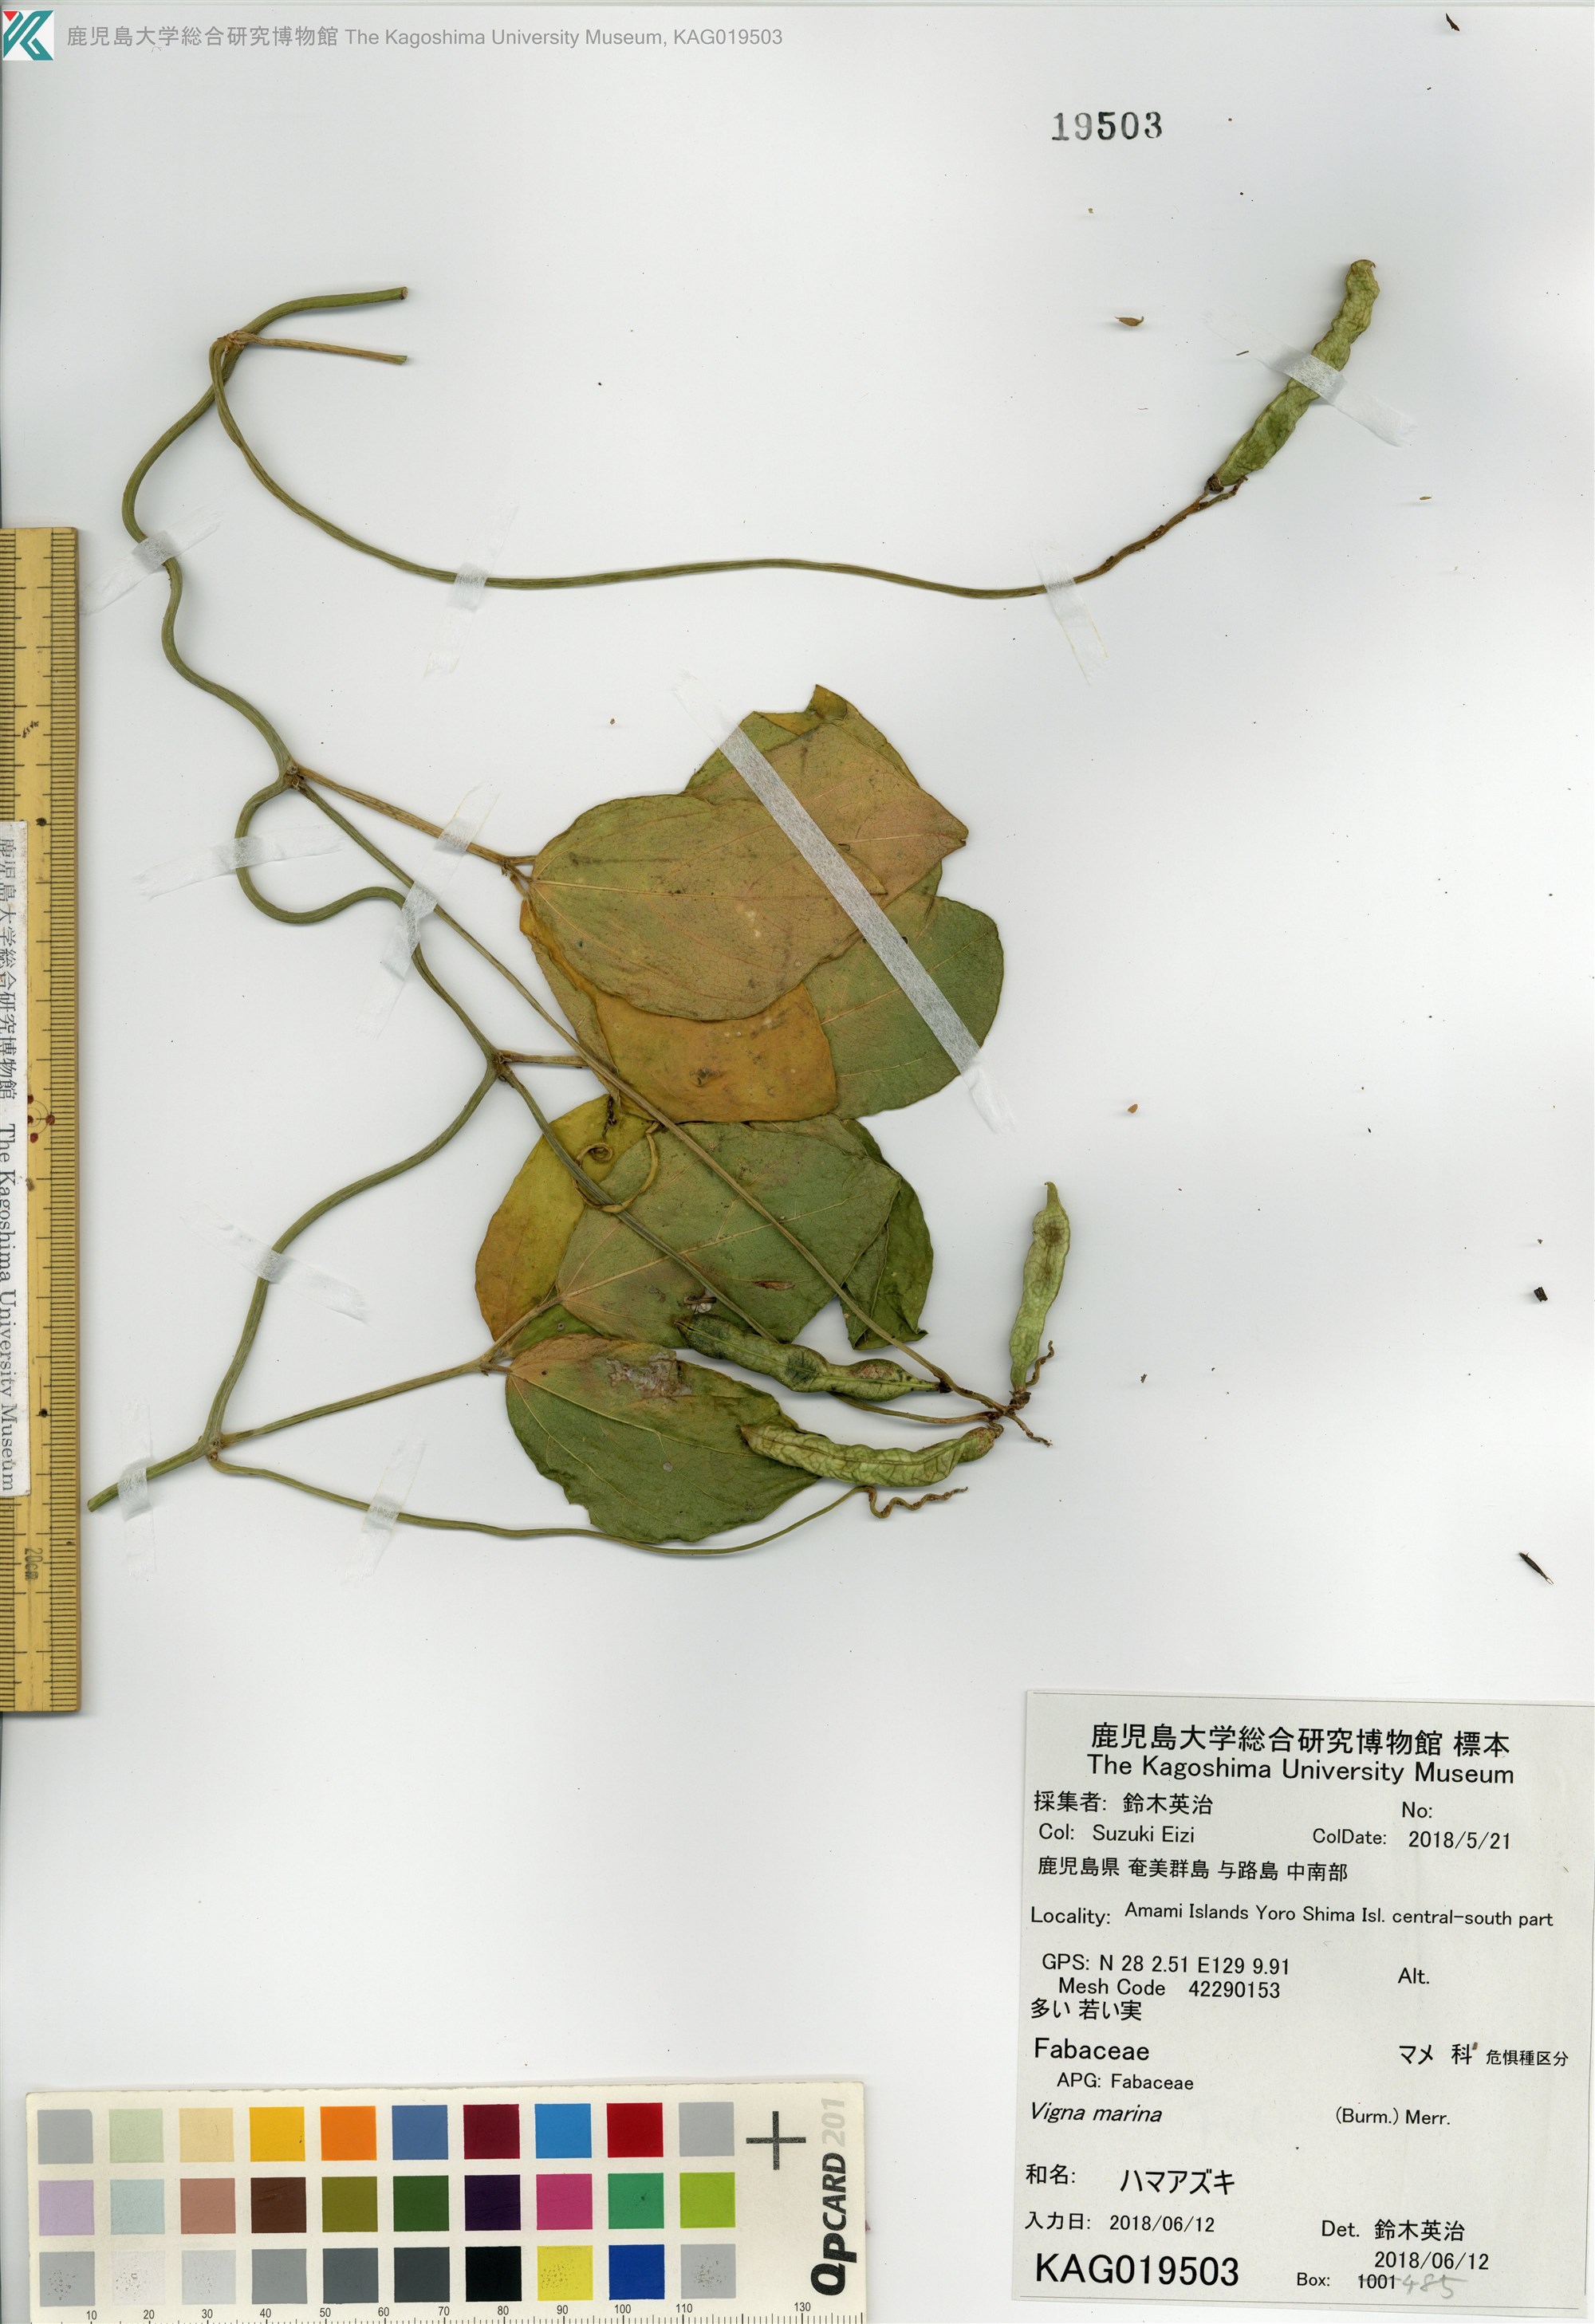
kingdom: Plantae
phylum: Tracheophyta
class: Magnoliopsida
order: Fabales
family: Fabaceae
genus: Vigna
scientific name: Vigna marina
